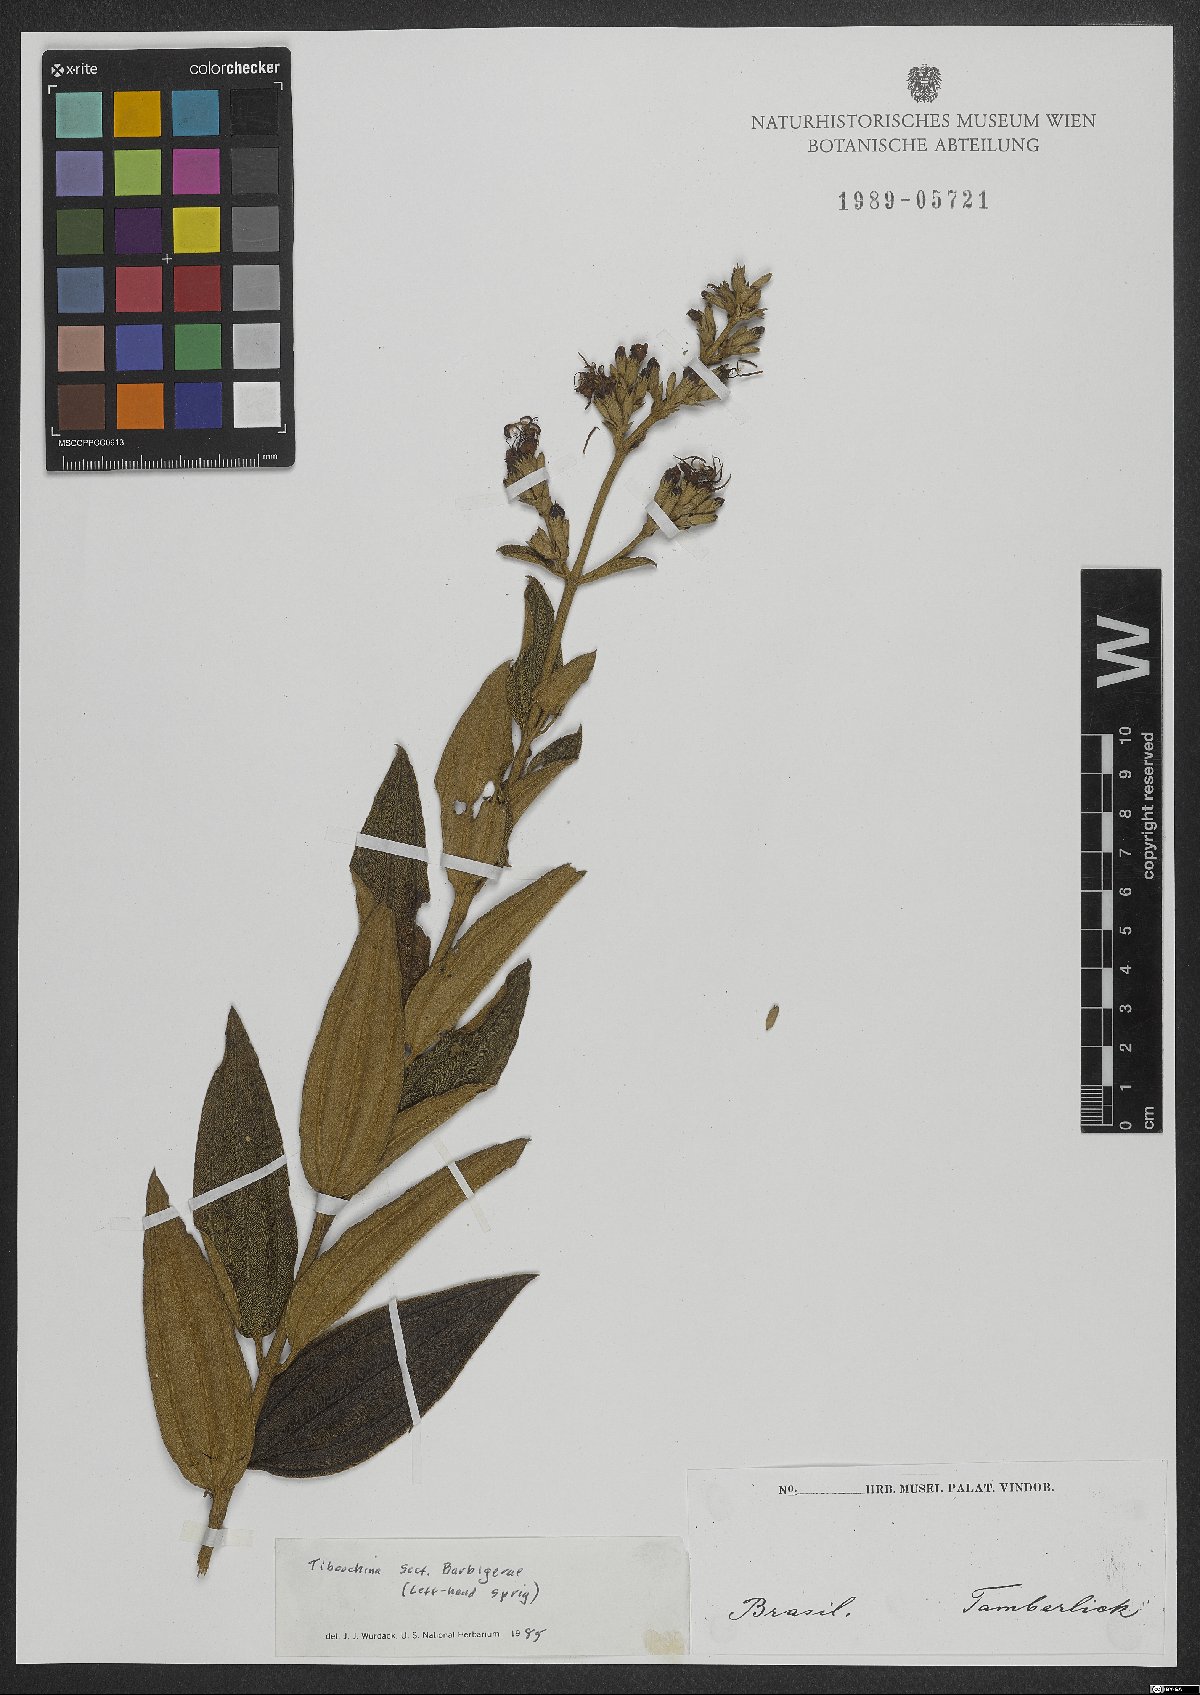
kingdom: Plantae
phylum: Tracheophyta
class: Magnoliopsida
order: Myrtales
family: Melastomataceae
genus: Tibouchina
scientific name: Tibouchina
